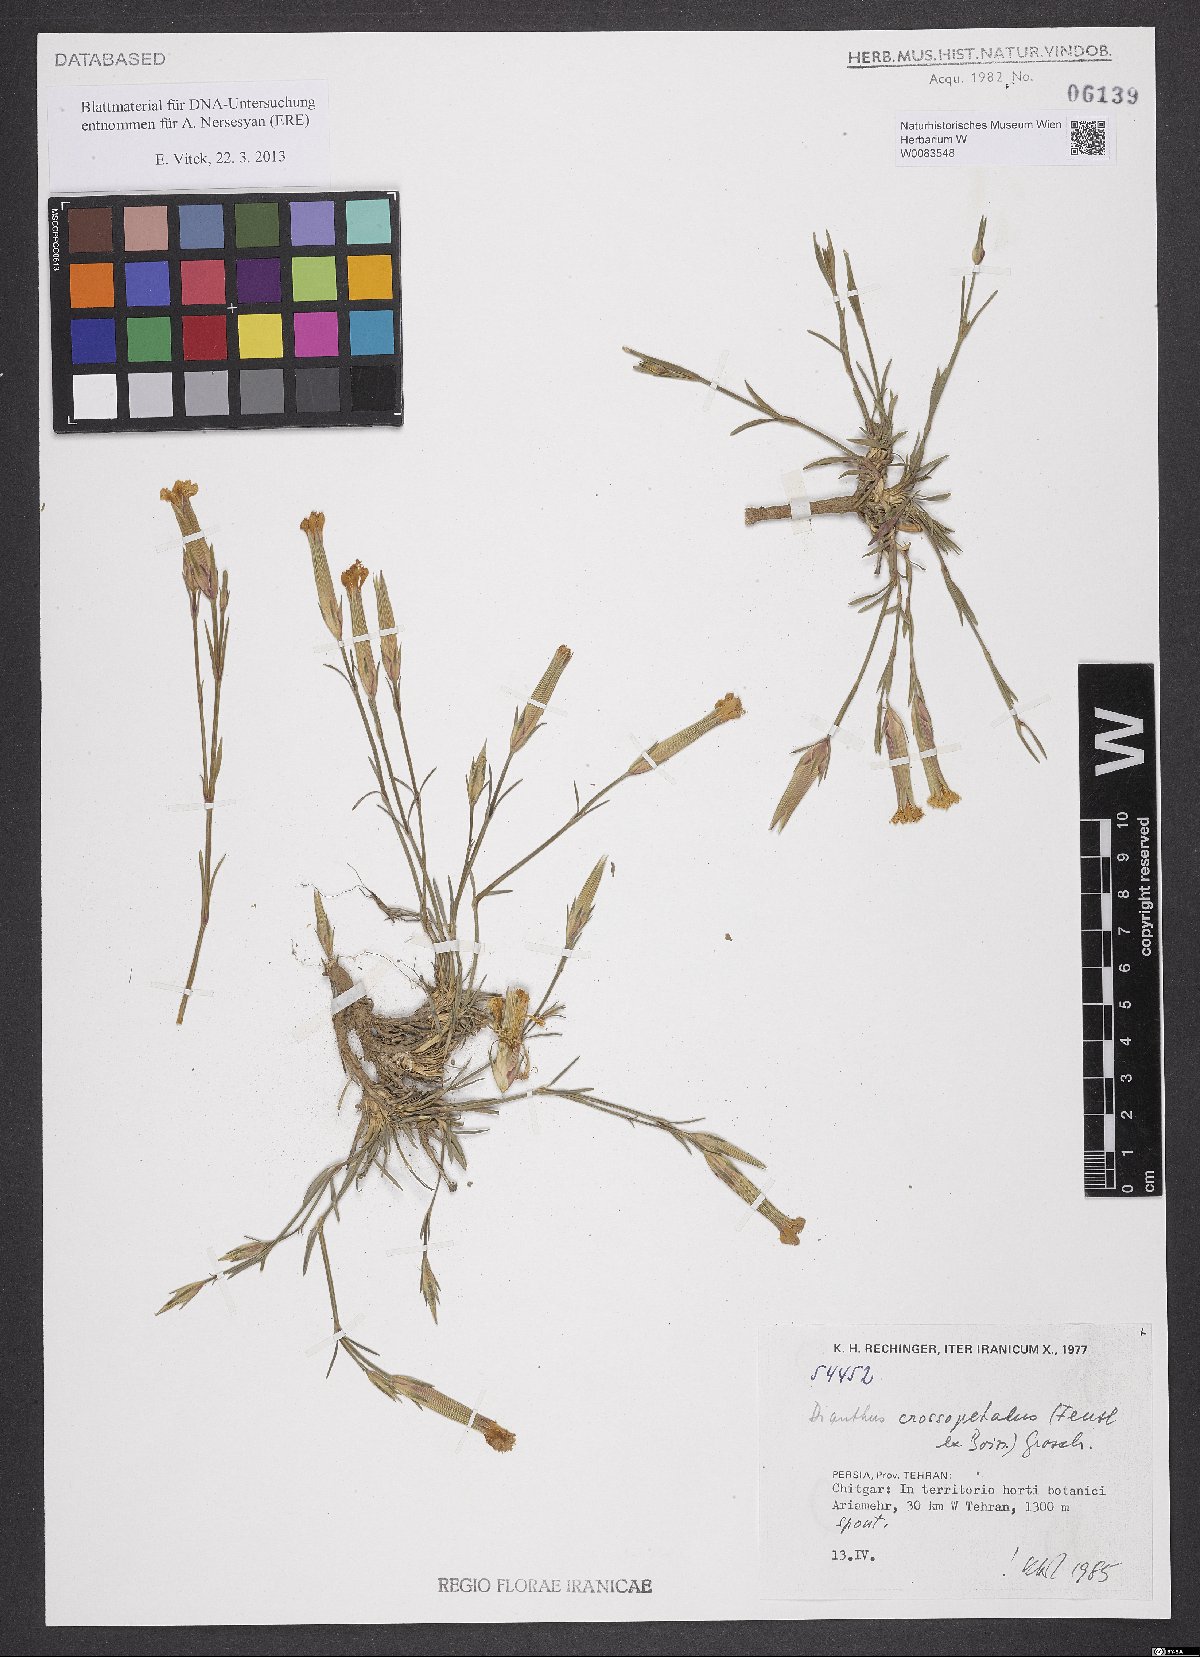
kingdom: Plantae
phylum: Tracheophyta
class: Magnoliopsida
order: Caryophyllales
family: Caryophyllaceae
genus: Dianthus
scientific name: Dianthus crossopetalus
